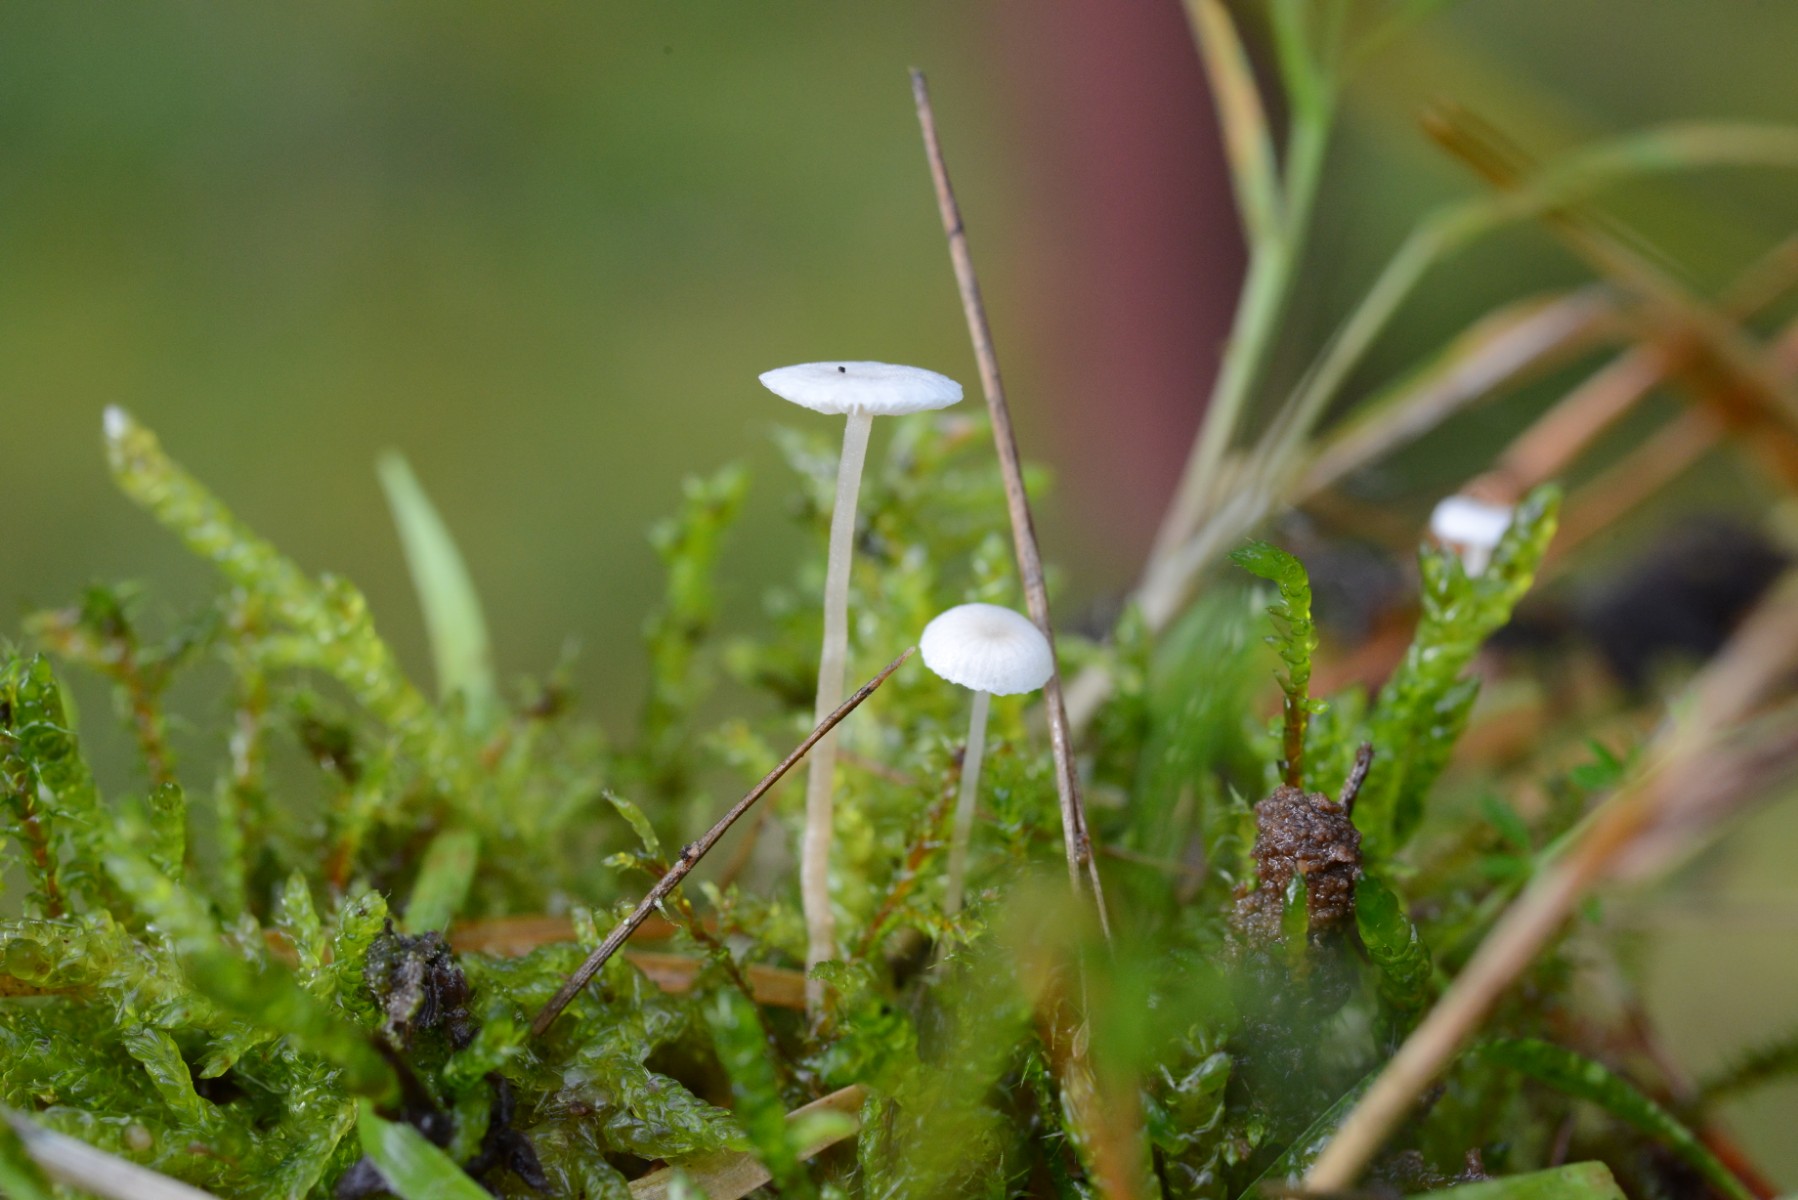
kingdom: Fungi
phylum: Basidiomycota
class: Agaricomycetes
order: Agaricales
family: Tricholomataceae
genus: Collybia
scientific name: Collybia cookei
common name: gulknoldet lighat
